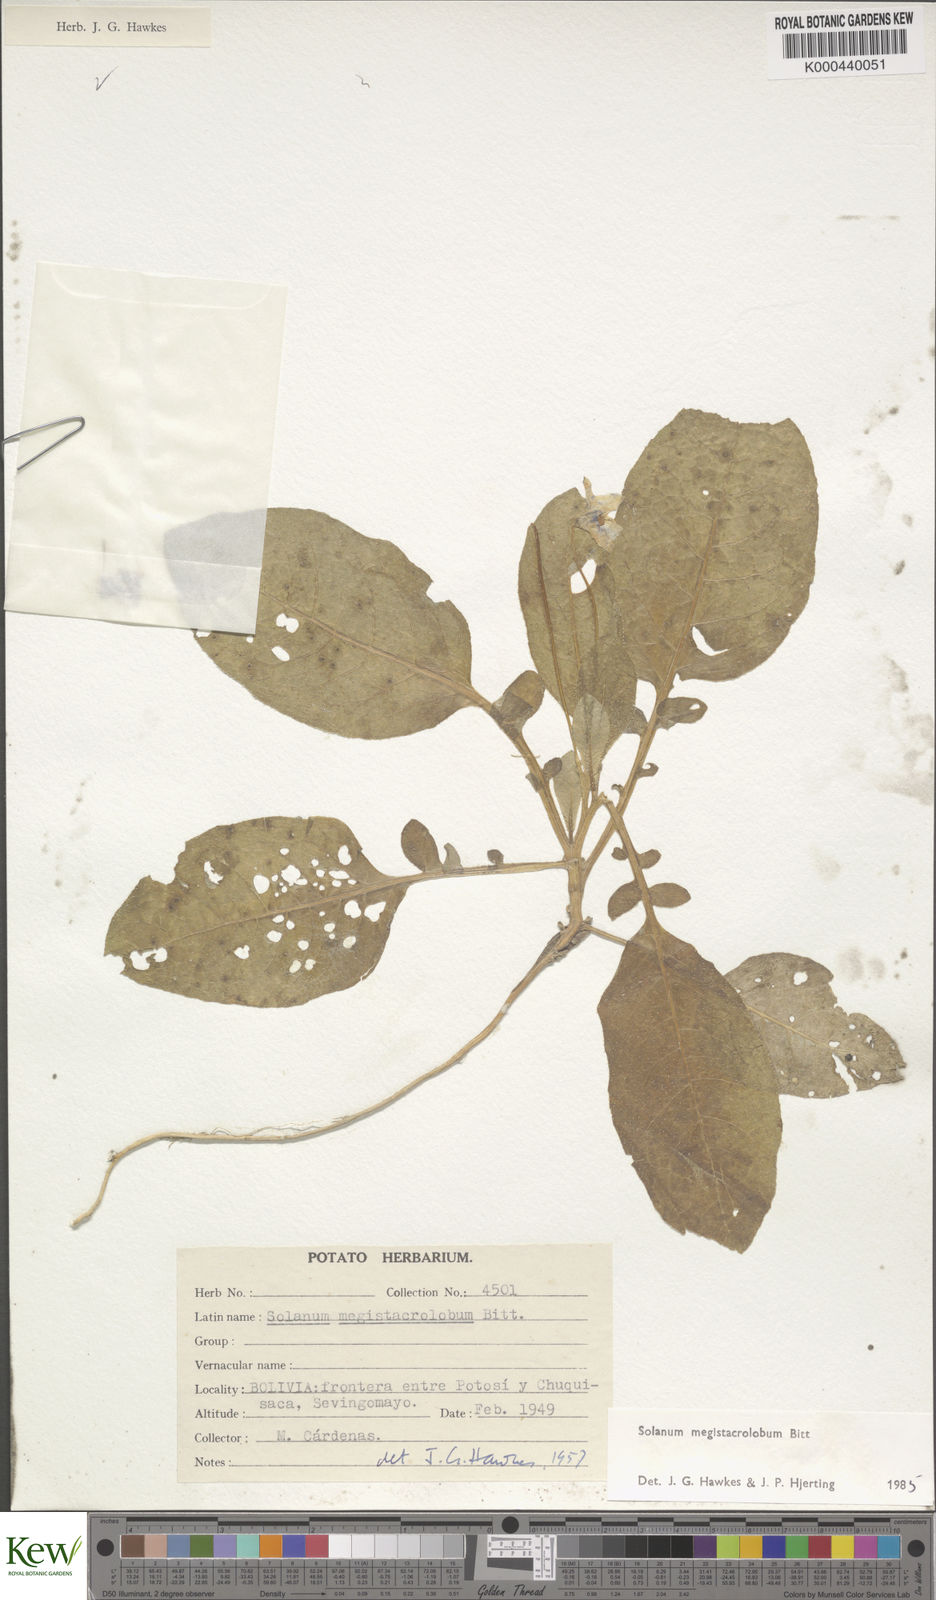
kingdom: Plantae
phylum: Tracheophyta
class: Magnoliopsida
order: Solanales
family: Solanaceae
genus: Solanum
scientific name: Solanum boliviense
